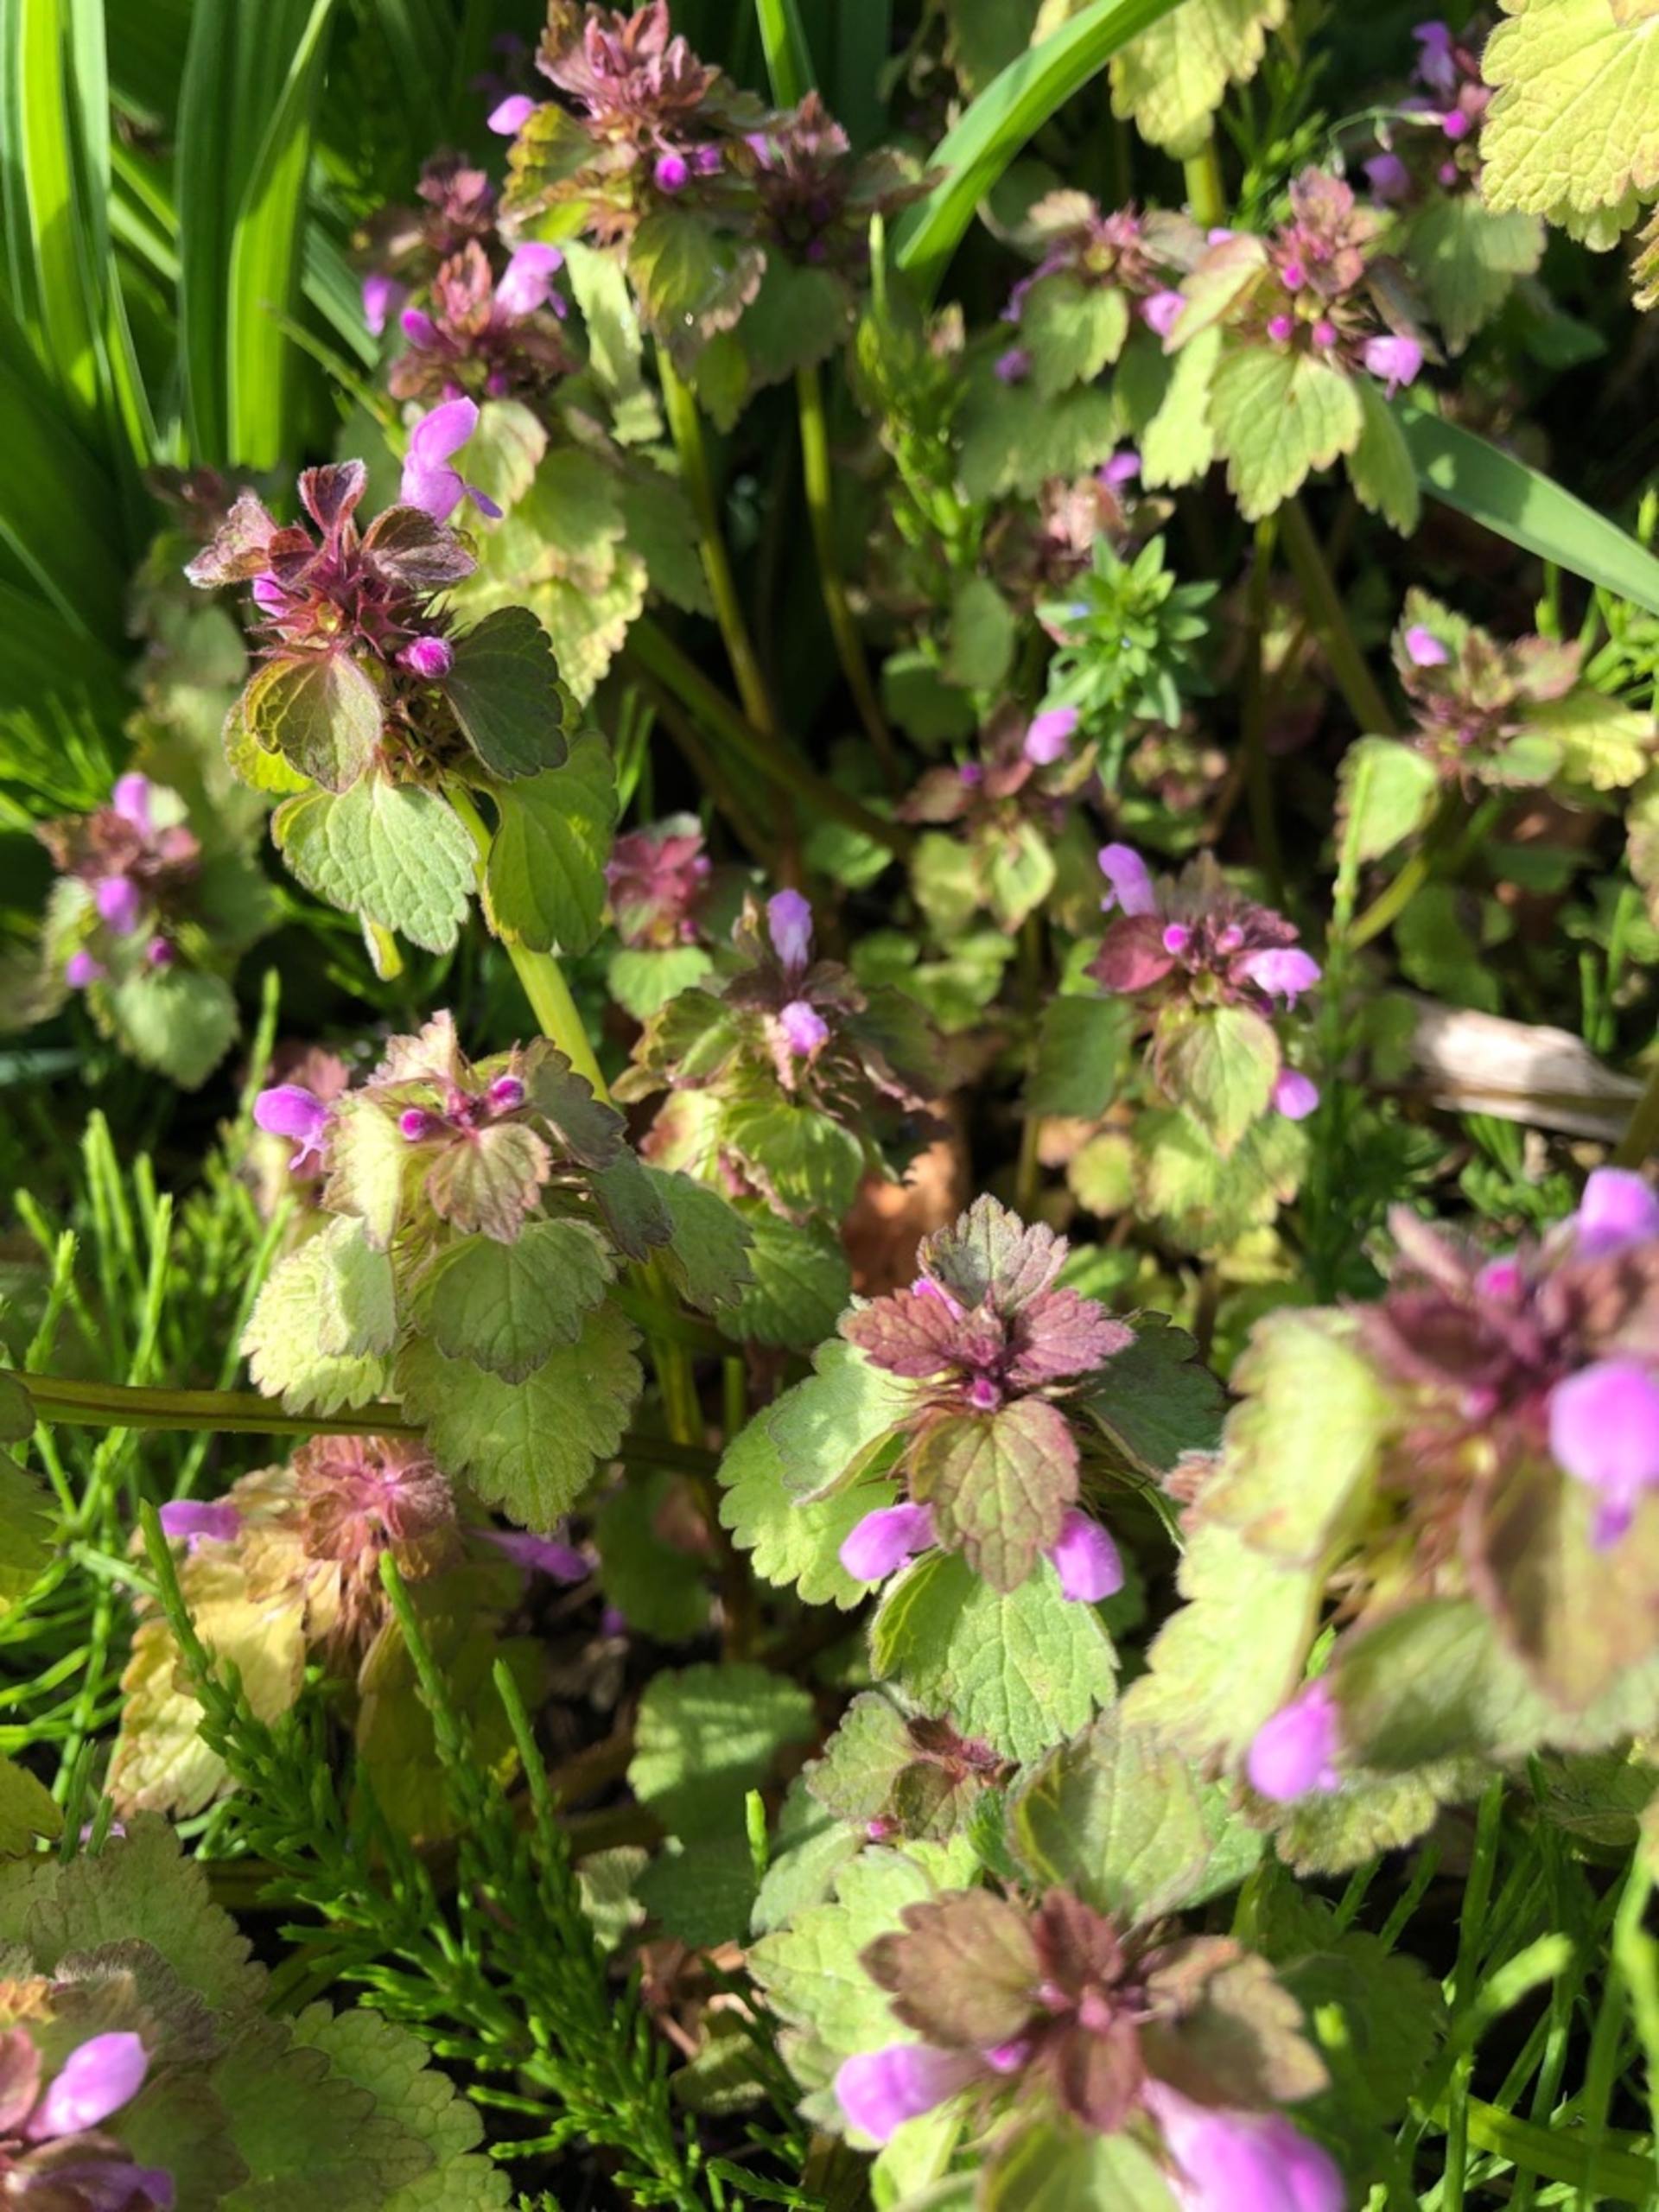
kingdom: Plantae
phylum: Tracheophyta
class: Magnoliopsida
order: Lamiales
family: Lamiaceae
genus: Lamium
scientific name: Lamium purpureum
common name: Rød tvetand
